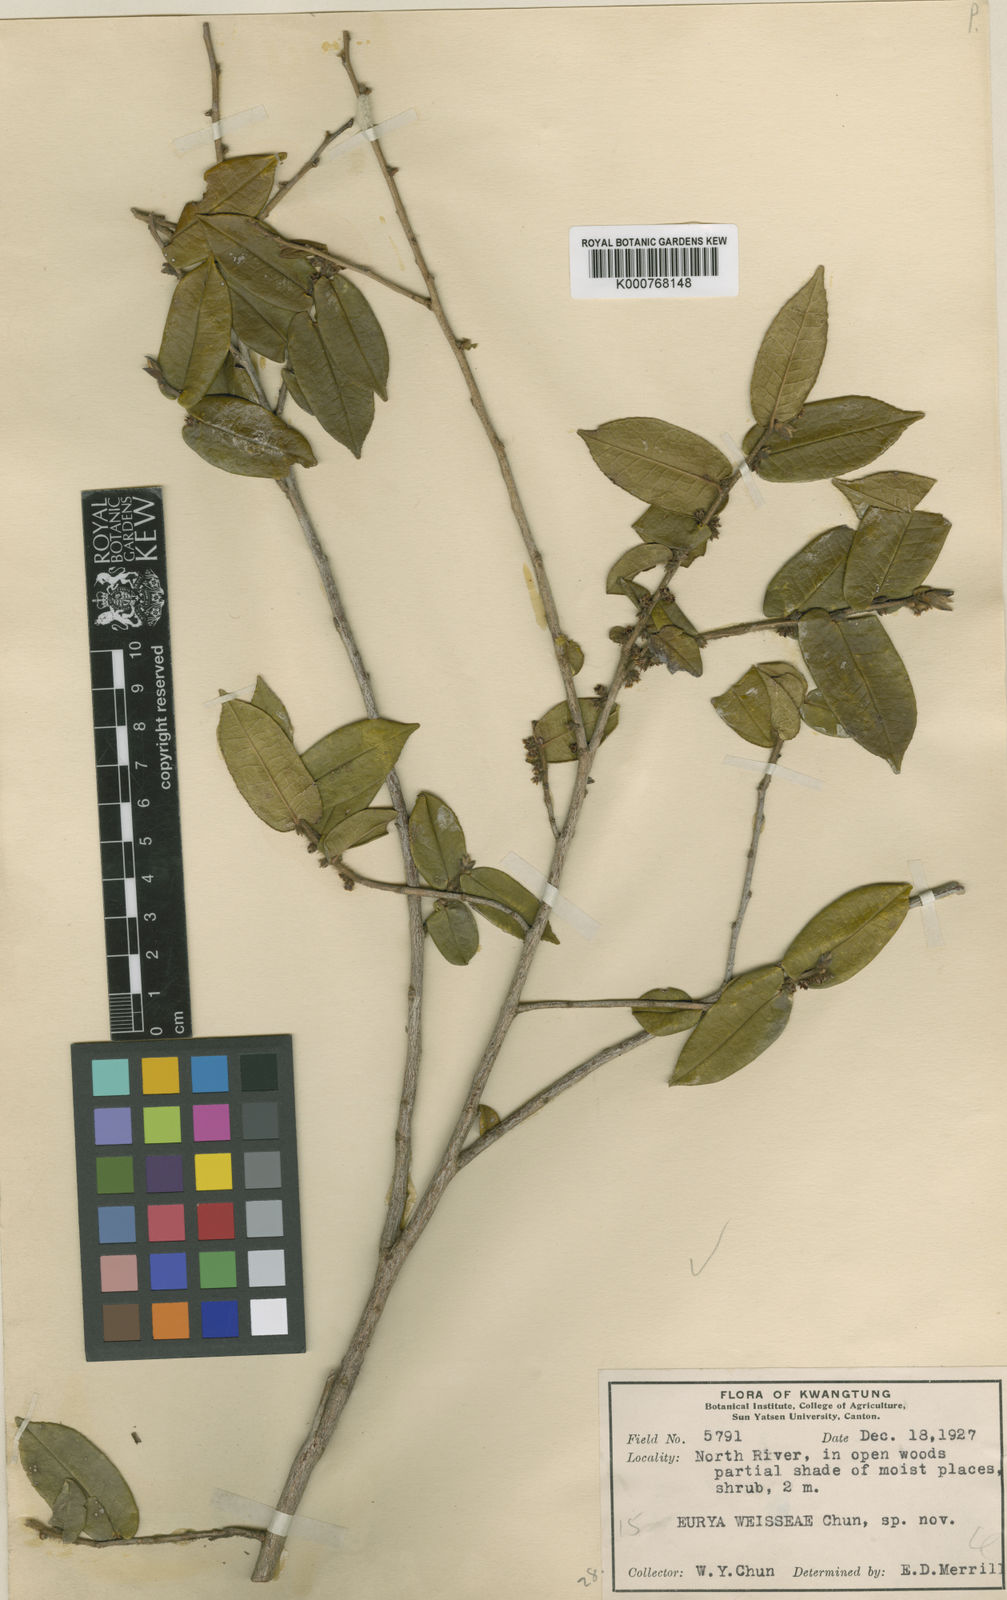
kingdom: Plantae
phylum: Tracheophyta
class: Magnoliopsida
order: Ericales
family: Pentaphylacaceae
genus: Eurya
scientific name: Eurya weissiae
